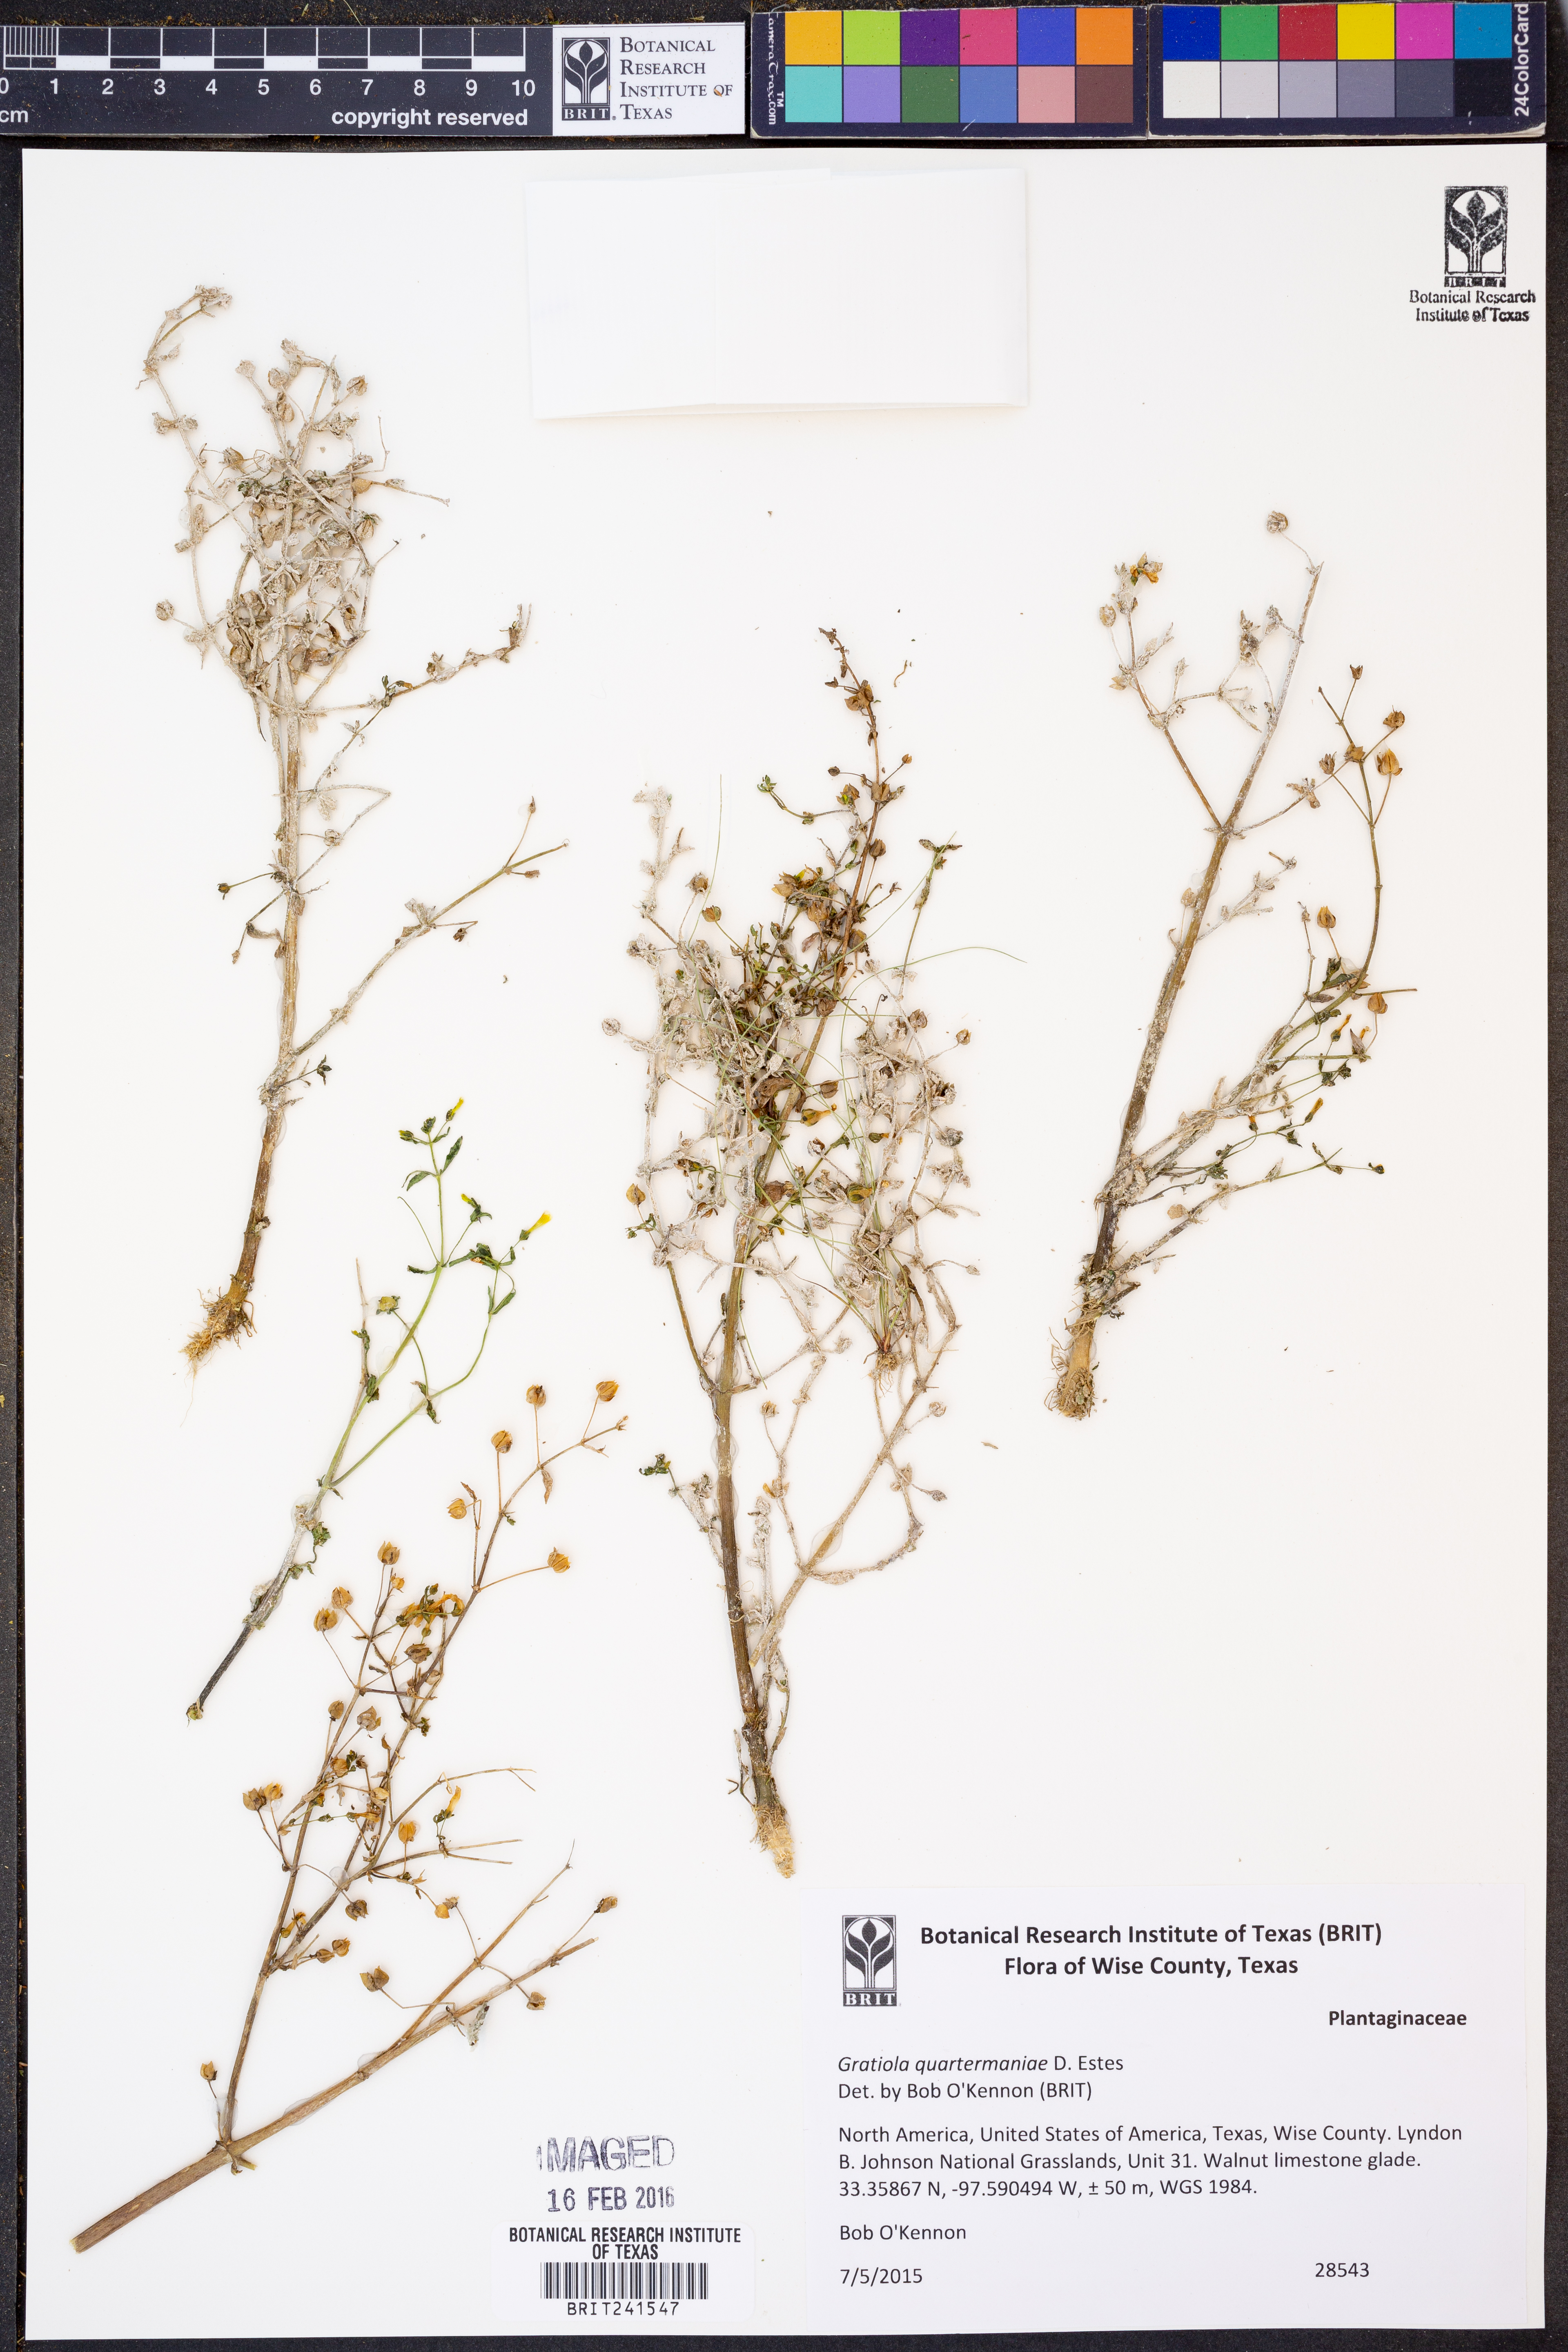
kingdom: Plantae
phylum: Tracheophyta
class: Magnoliopsida
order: Lamiales
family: Plantaginaceae
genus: Gratiola
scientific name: Gratiola quartermaniae
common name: Quarterman's hedge-hyssop
